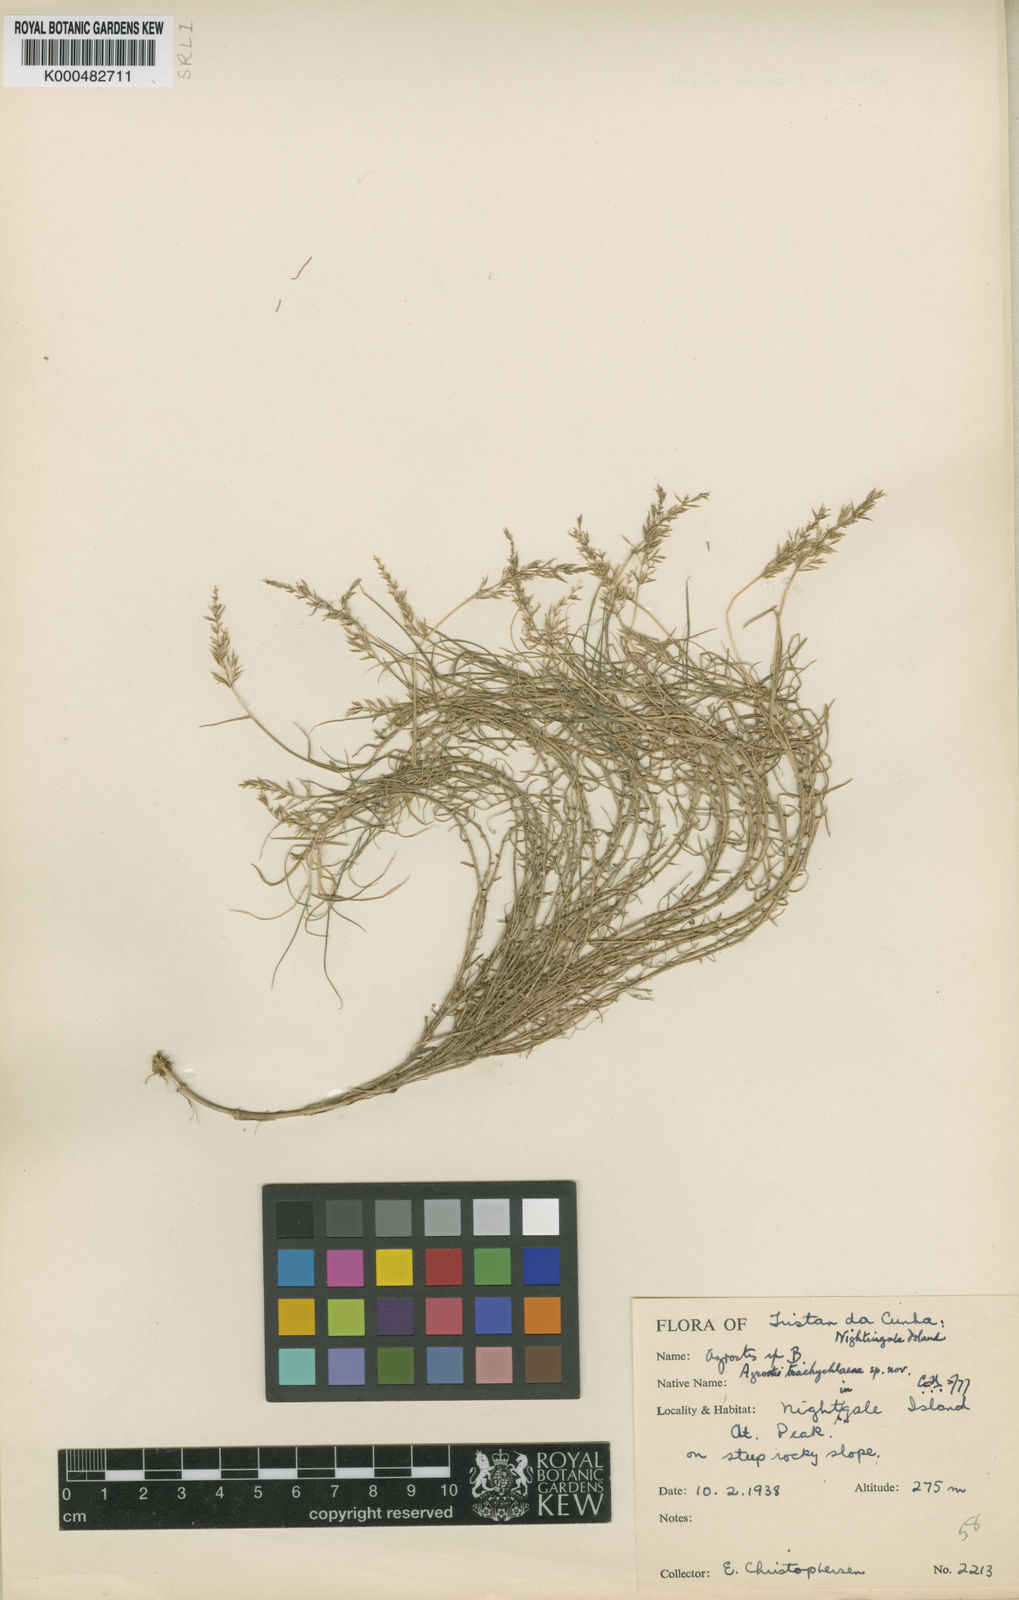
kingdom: Plantae
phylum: Tracheophyta
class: Liliopsida
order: Poales
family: Poaceae
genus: Agrostis
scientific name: Agrostis trachychlaena
